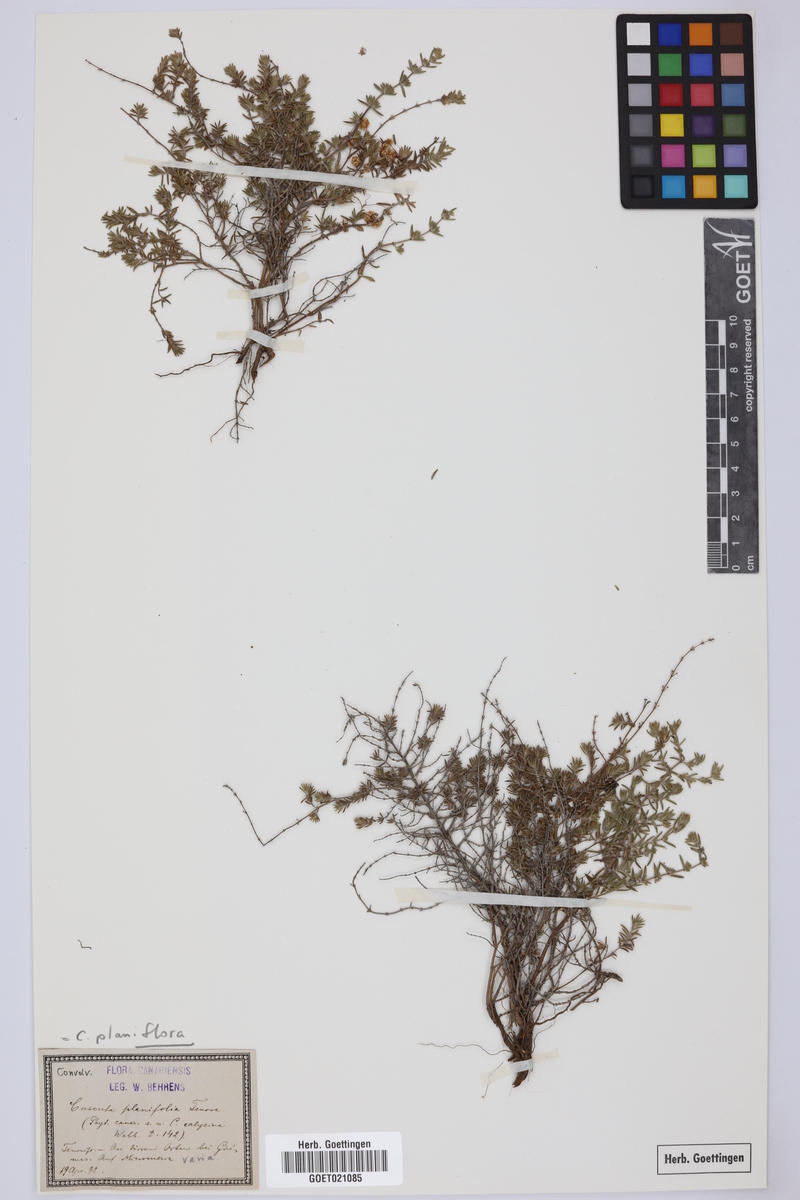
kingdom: Plantae
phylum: Tracheophyta
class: Magnoliopsida
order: Solanales
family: Convolvulaceae
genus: Cuscuta
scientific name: Cuscuta planiflora
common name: Small-seed alfalfa dodder
